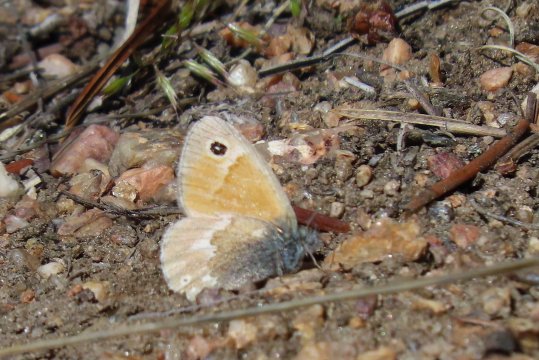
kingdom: Animalia
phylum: Arthropoda
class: Insecta
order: Lepidoptera
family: Nymphalidae
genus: Coenonympha
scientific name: Coenonympha tullia
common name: Large Heath
